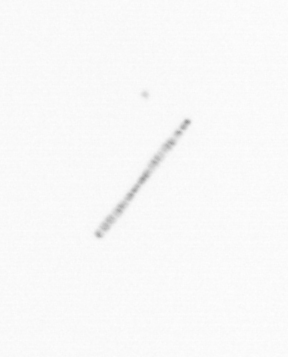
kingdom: Chromista
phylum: Ochrophyta
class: Bacillariophyceae
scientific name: Bacillariophyceae
